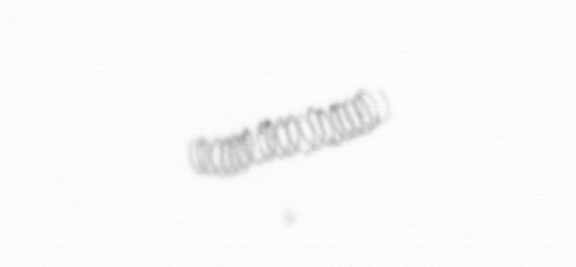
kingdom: Chromista
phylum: Ochrophyta
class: Bacillariophyceae
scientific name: Bacillariophyceae
